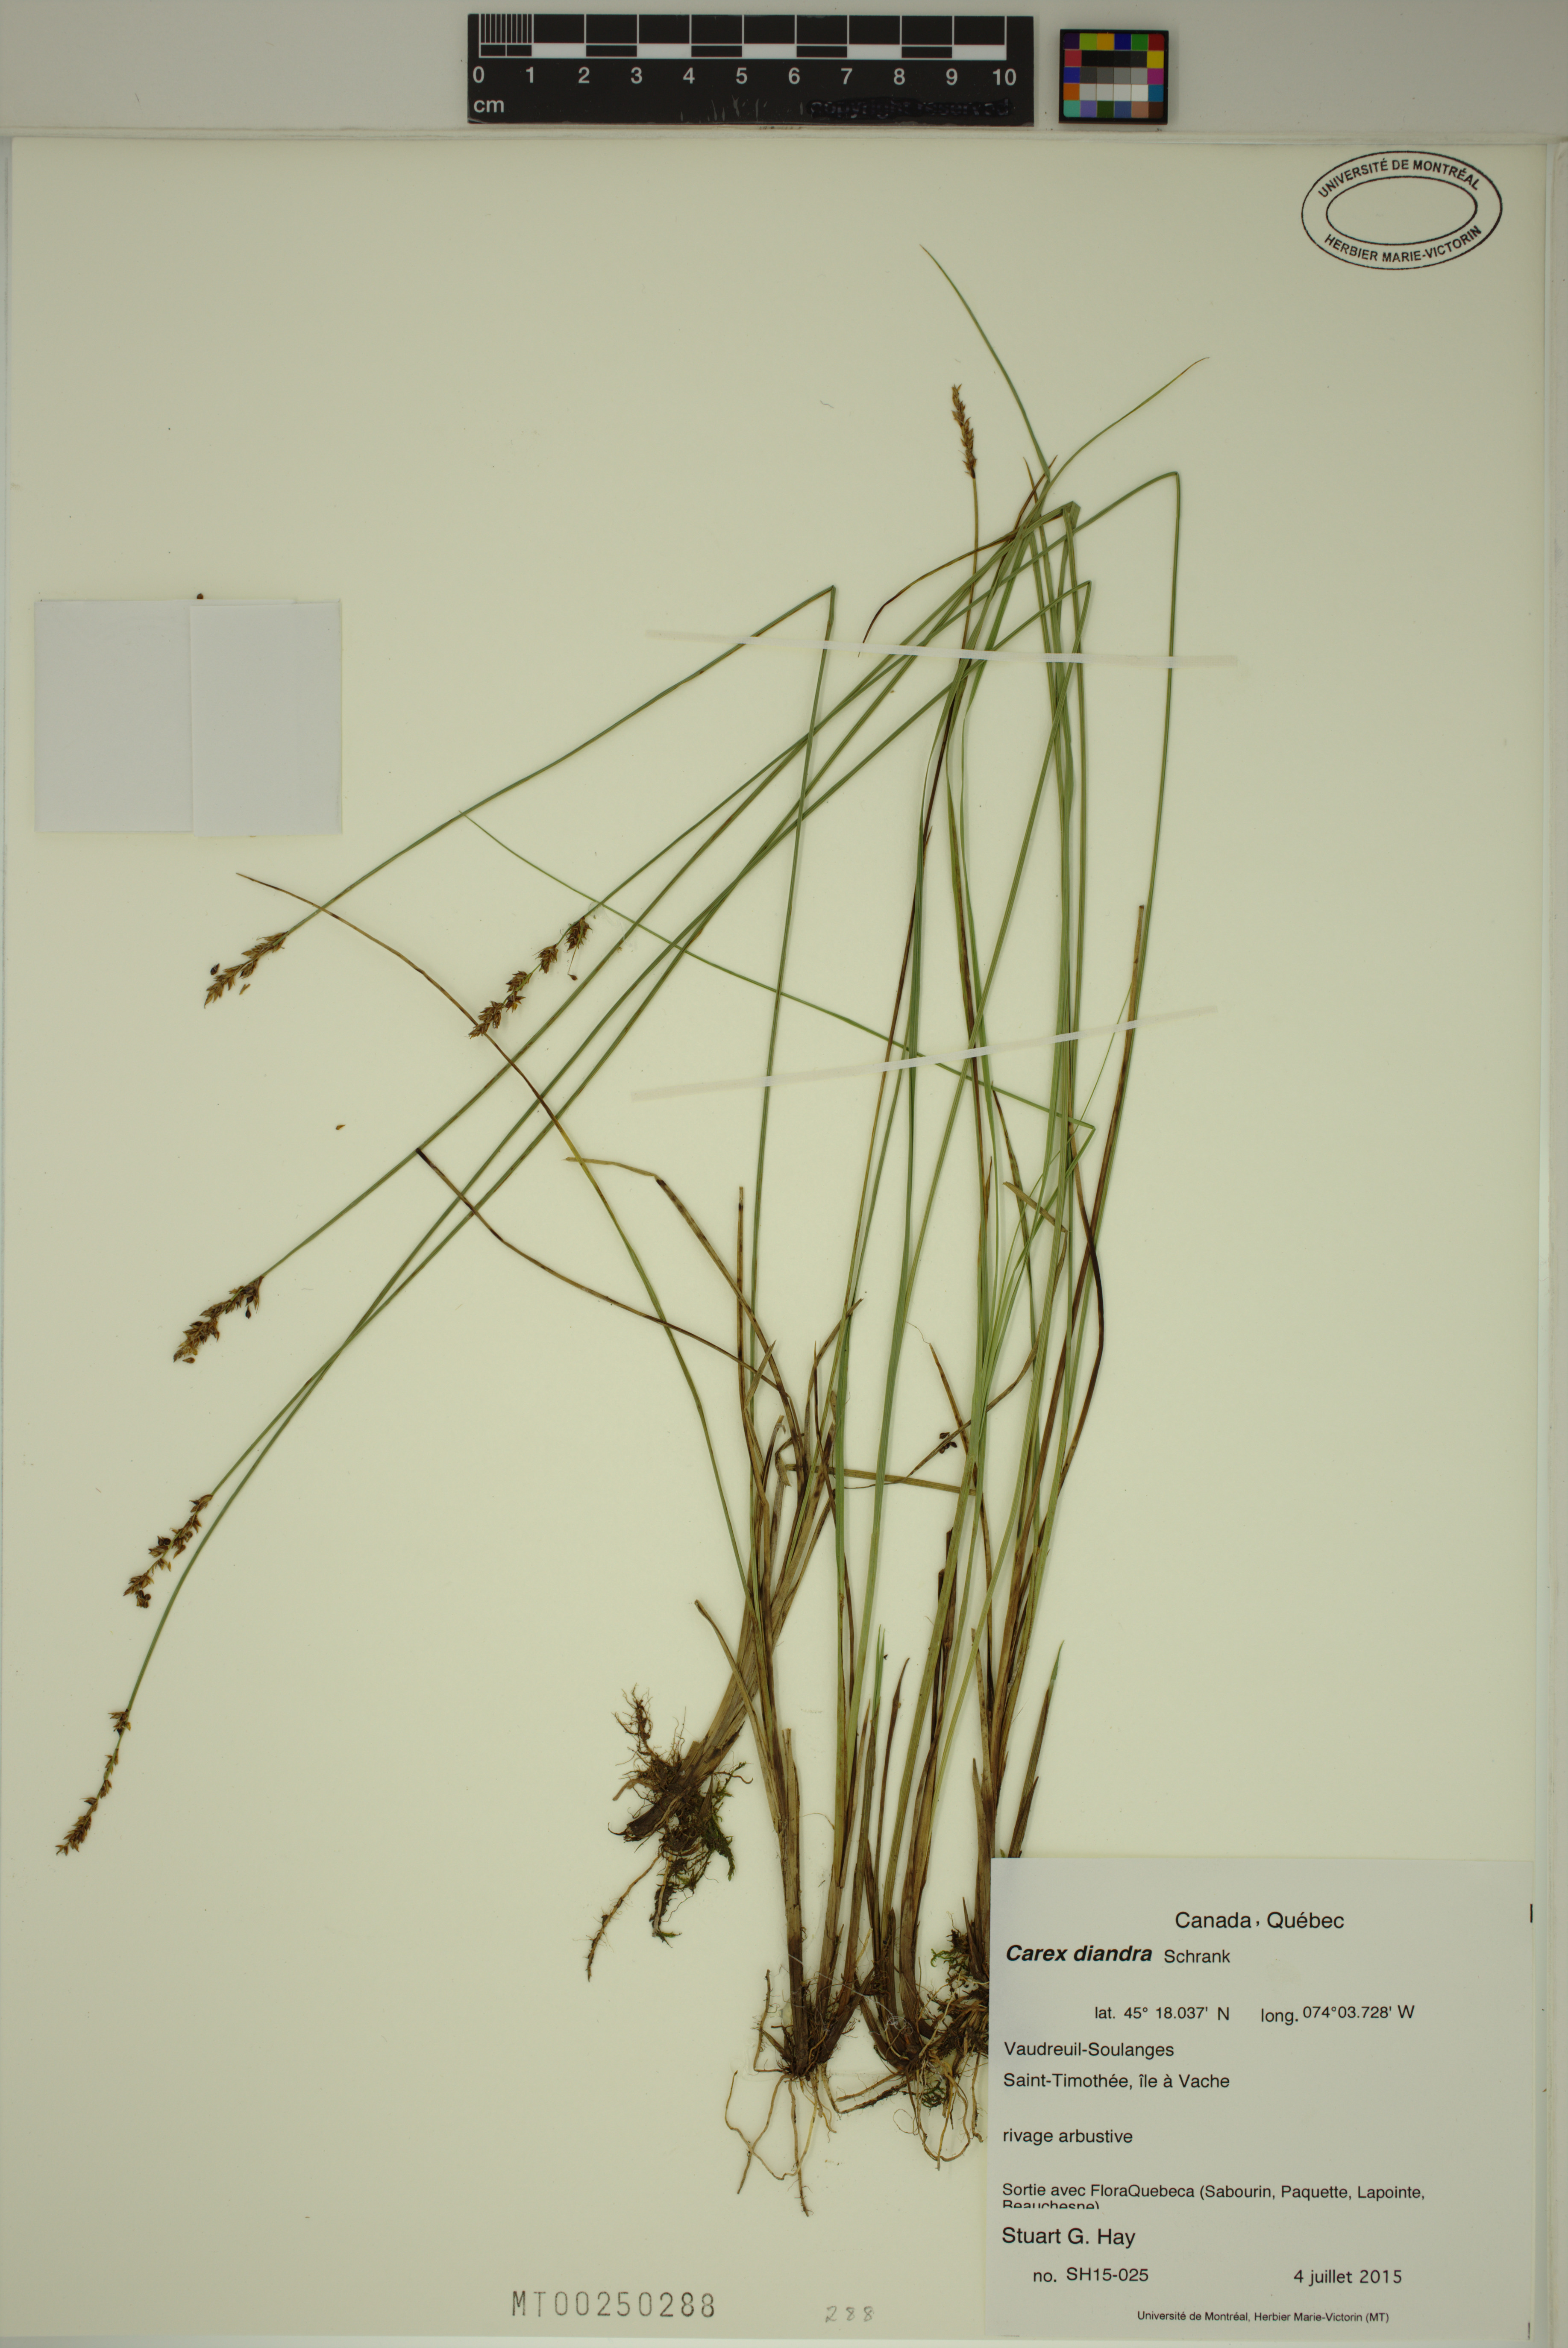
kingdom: Plantae
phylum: Tracheophyta
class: Liliopsida
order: Poales
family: Cyperaceae
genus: Carex
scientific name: Carex diandra
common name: Lesser tussock-sedge
